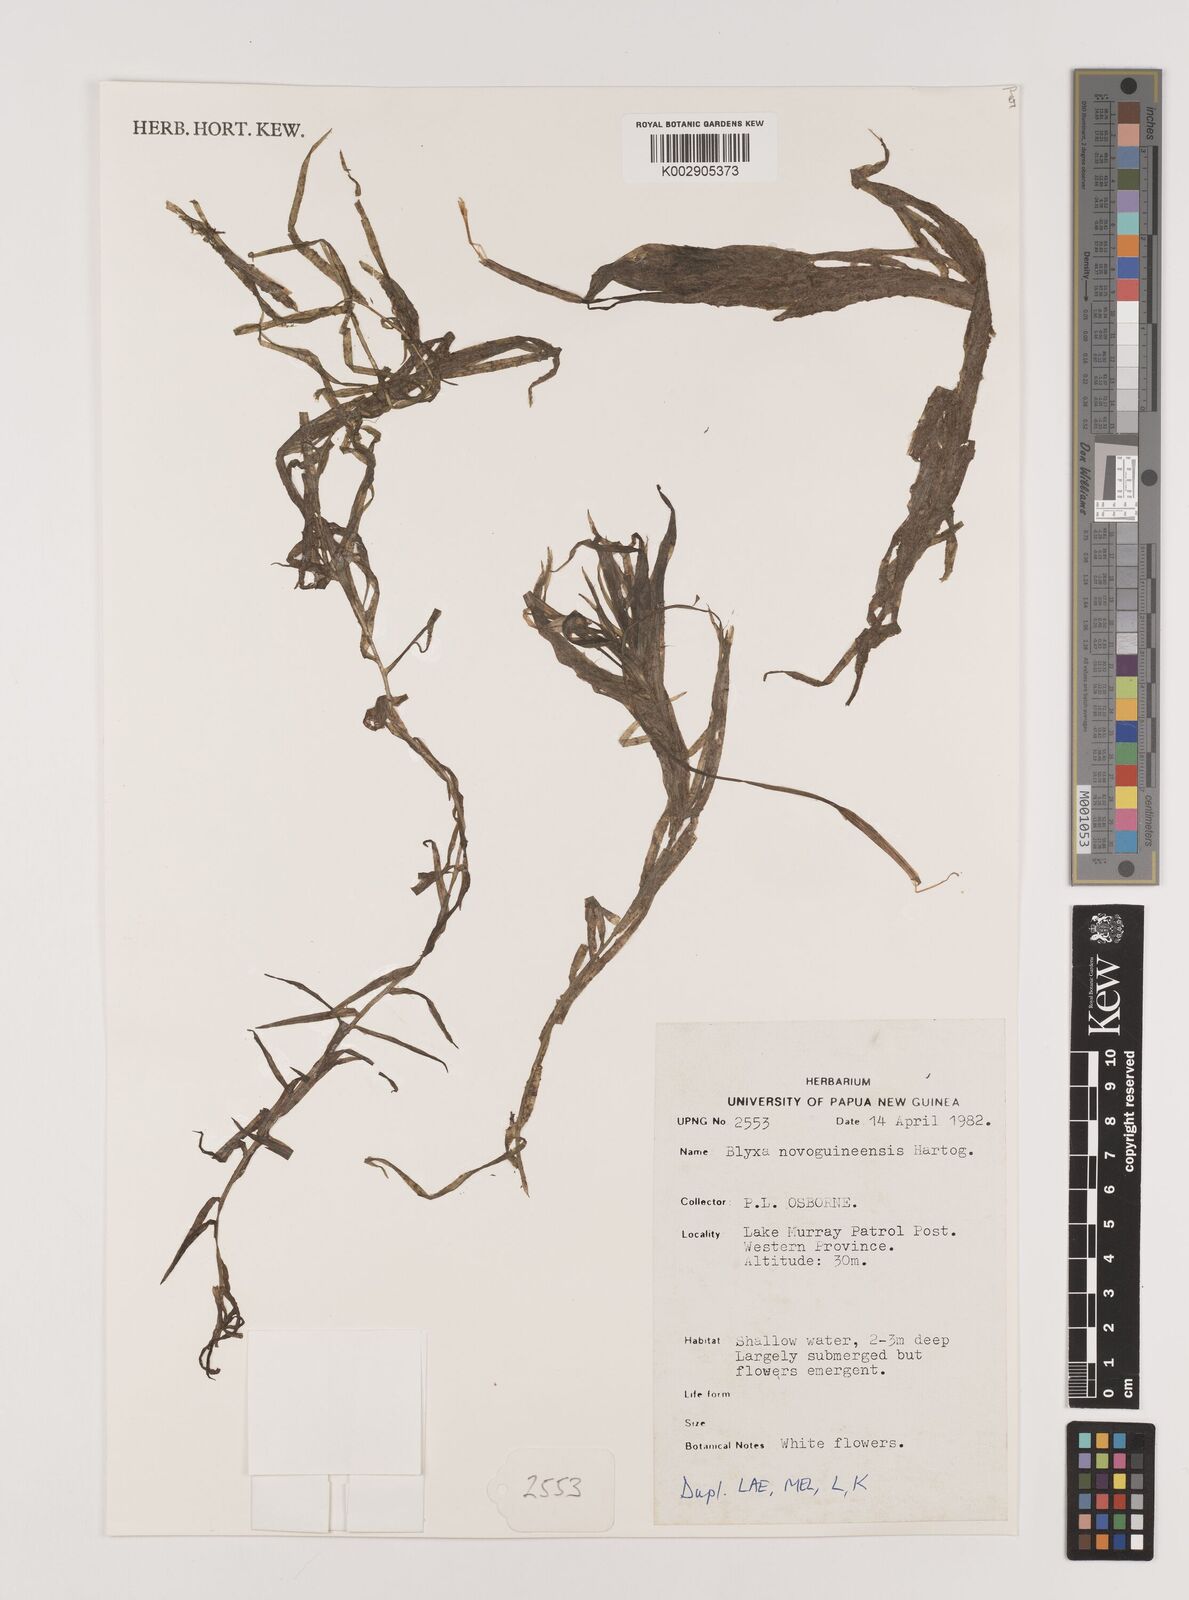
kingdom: Plantae
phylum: Tracheophyta
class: Liliopsida
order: Alismatales
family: Hydrocharitaceae
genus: Blyxa
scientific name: Blyxa novoguineensis
